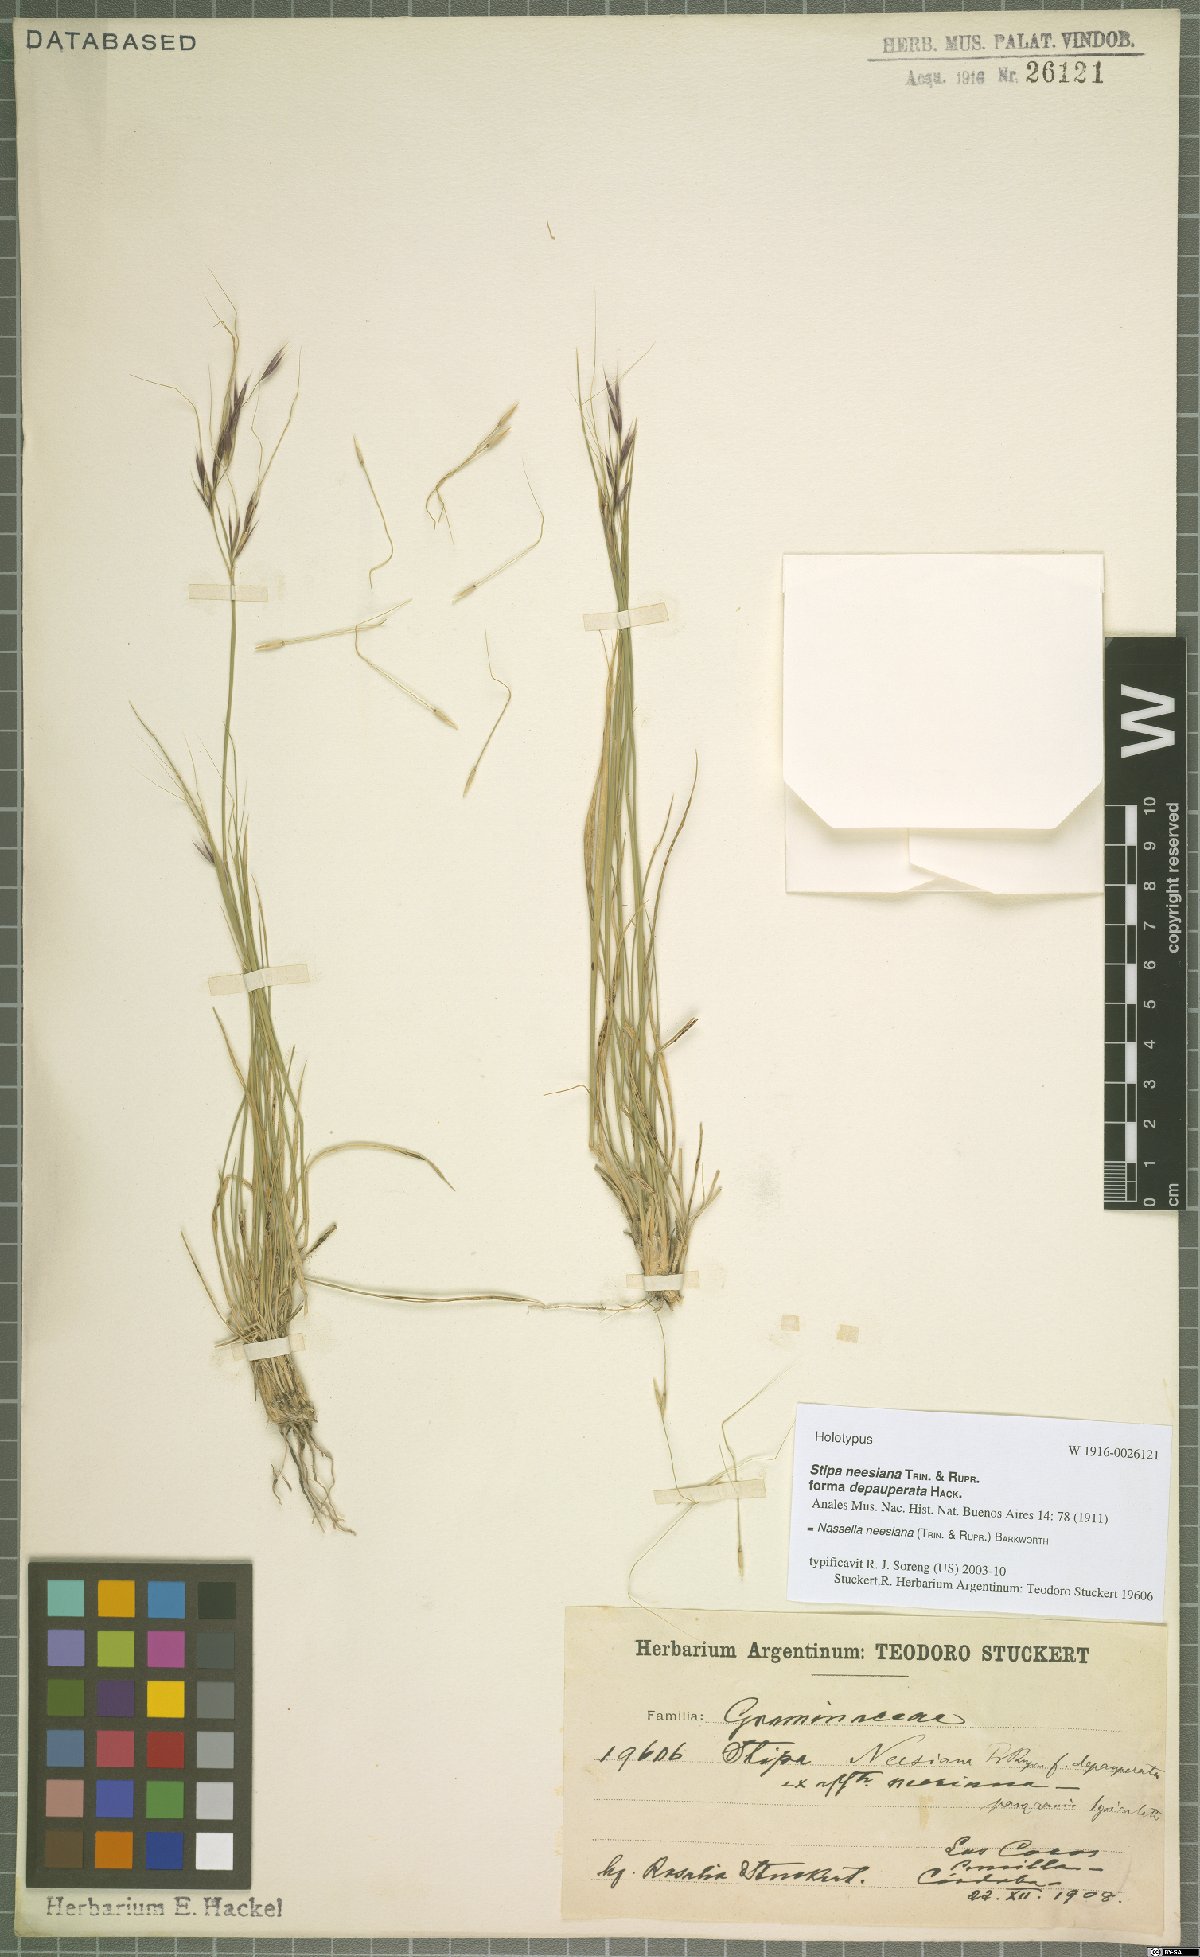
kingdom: Plantae
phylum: Tracheophyta
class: Liliopsida
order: Poales
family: Poaceae
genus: Nassella
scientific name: Nassella neesiana
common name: American needle-grass
